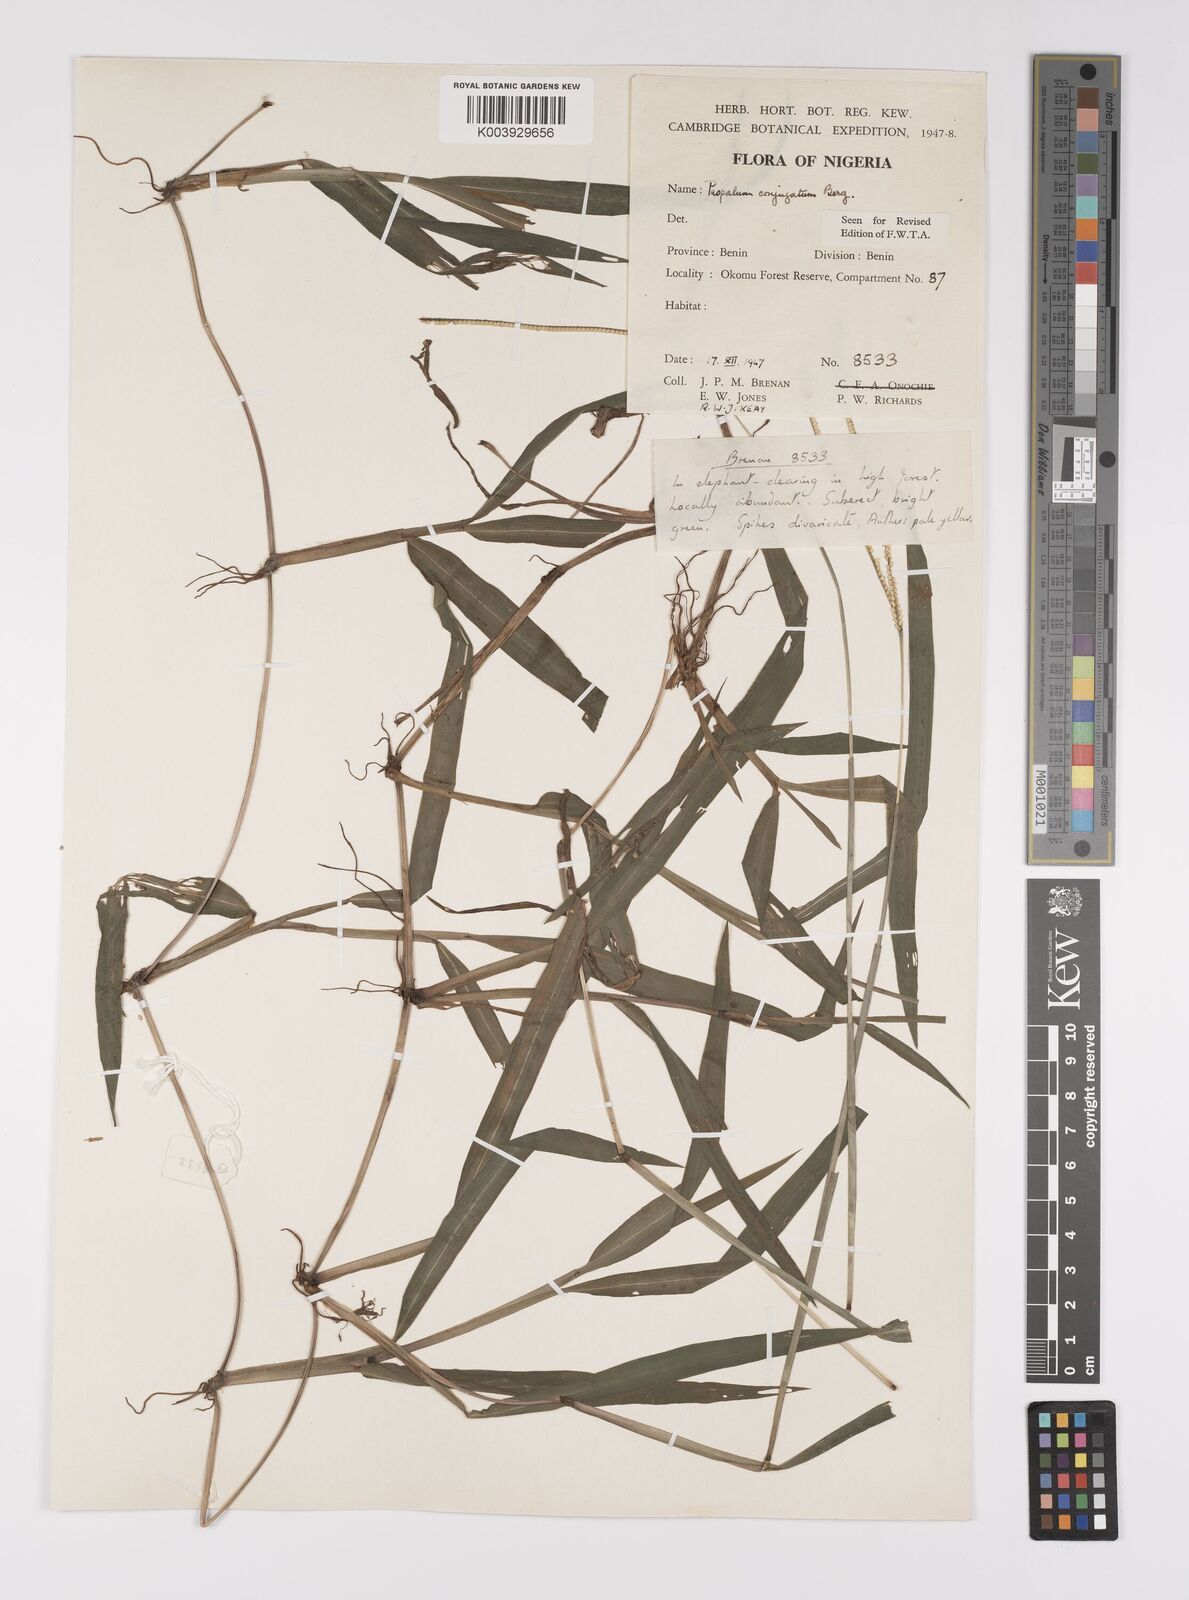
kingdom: Plantae
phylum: Tracheophyta
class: Liliopsida
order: Poales
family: Poaceae
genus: Paspalum
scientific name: Paspalum conjugatum
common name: Hilograss
